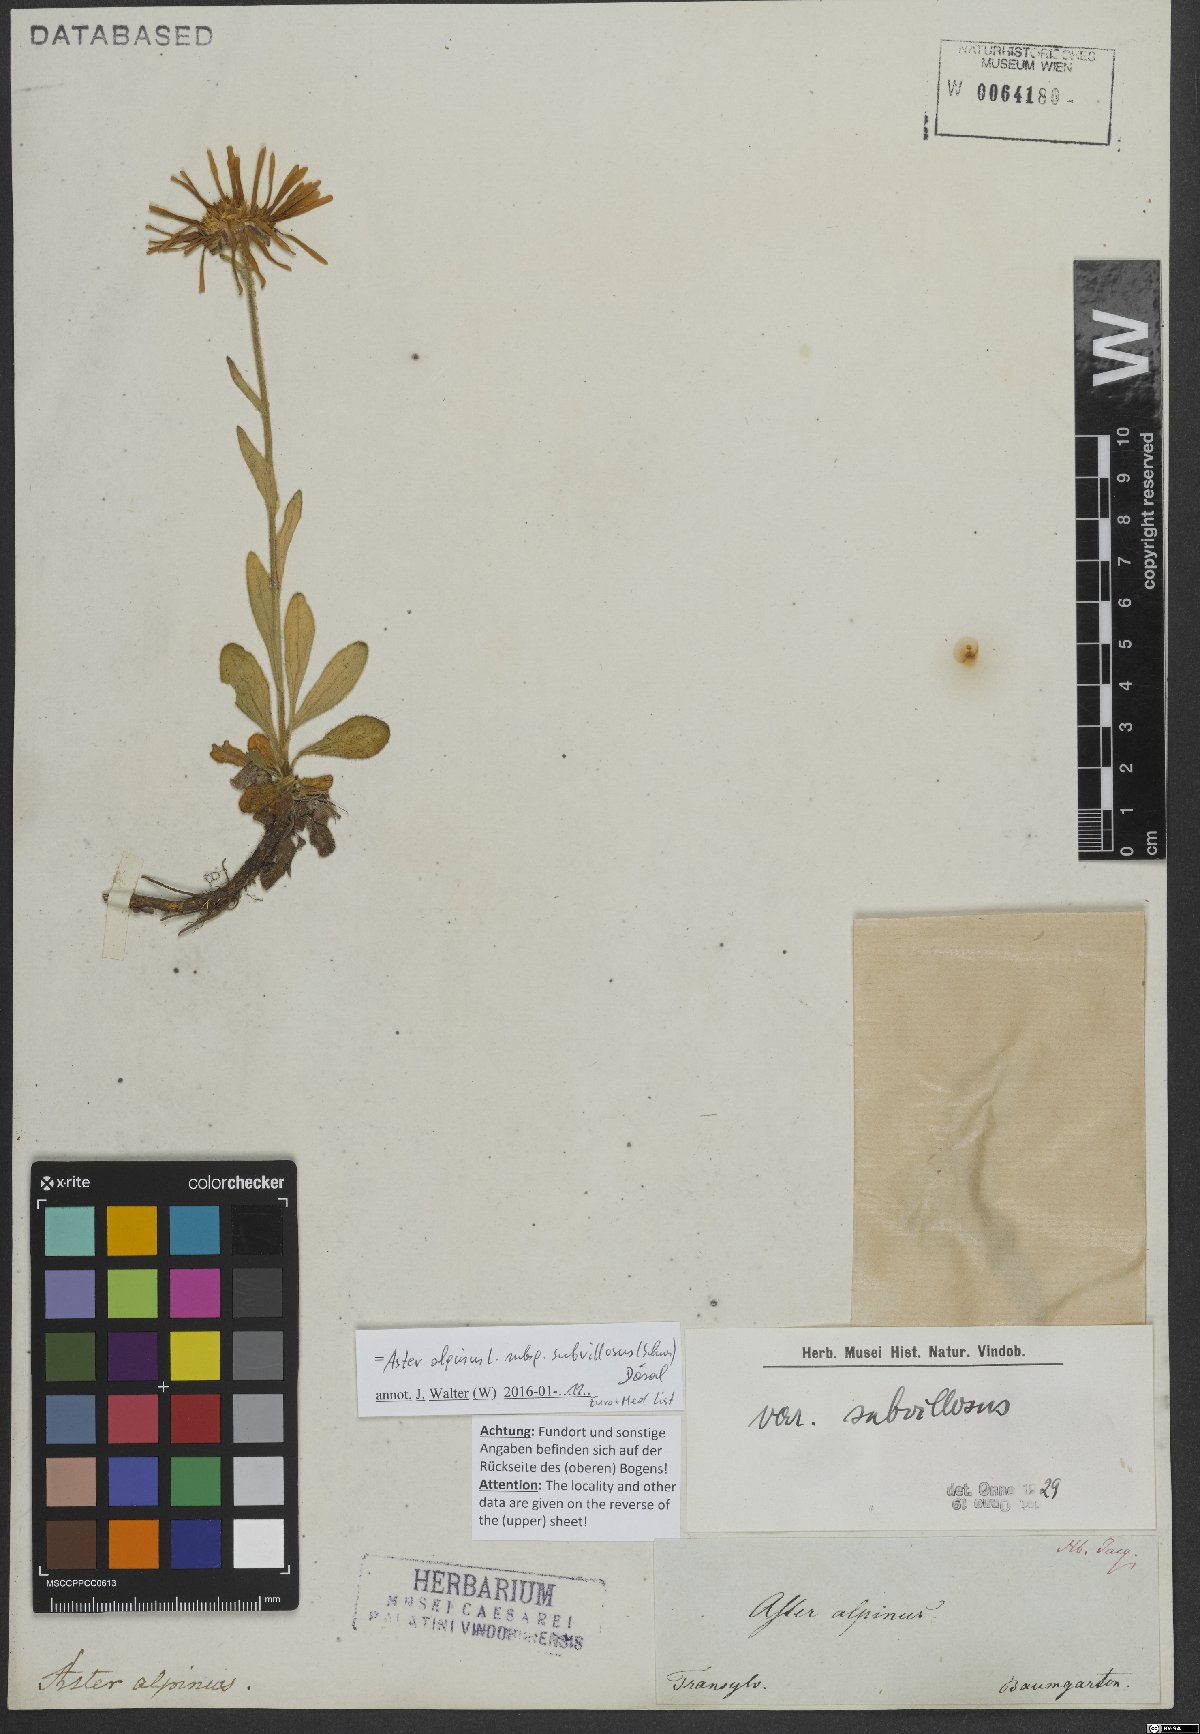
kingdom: Plantae
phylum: Tracheophyta
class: Magnoliopsida
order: Asterales
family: Asteraceae
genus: Aster
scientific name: Aster alpinus
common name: Alpine aster
